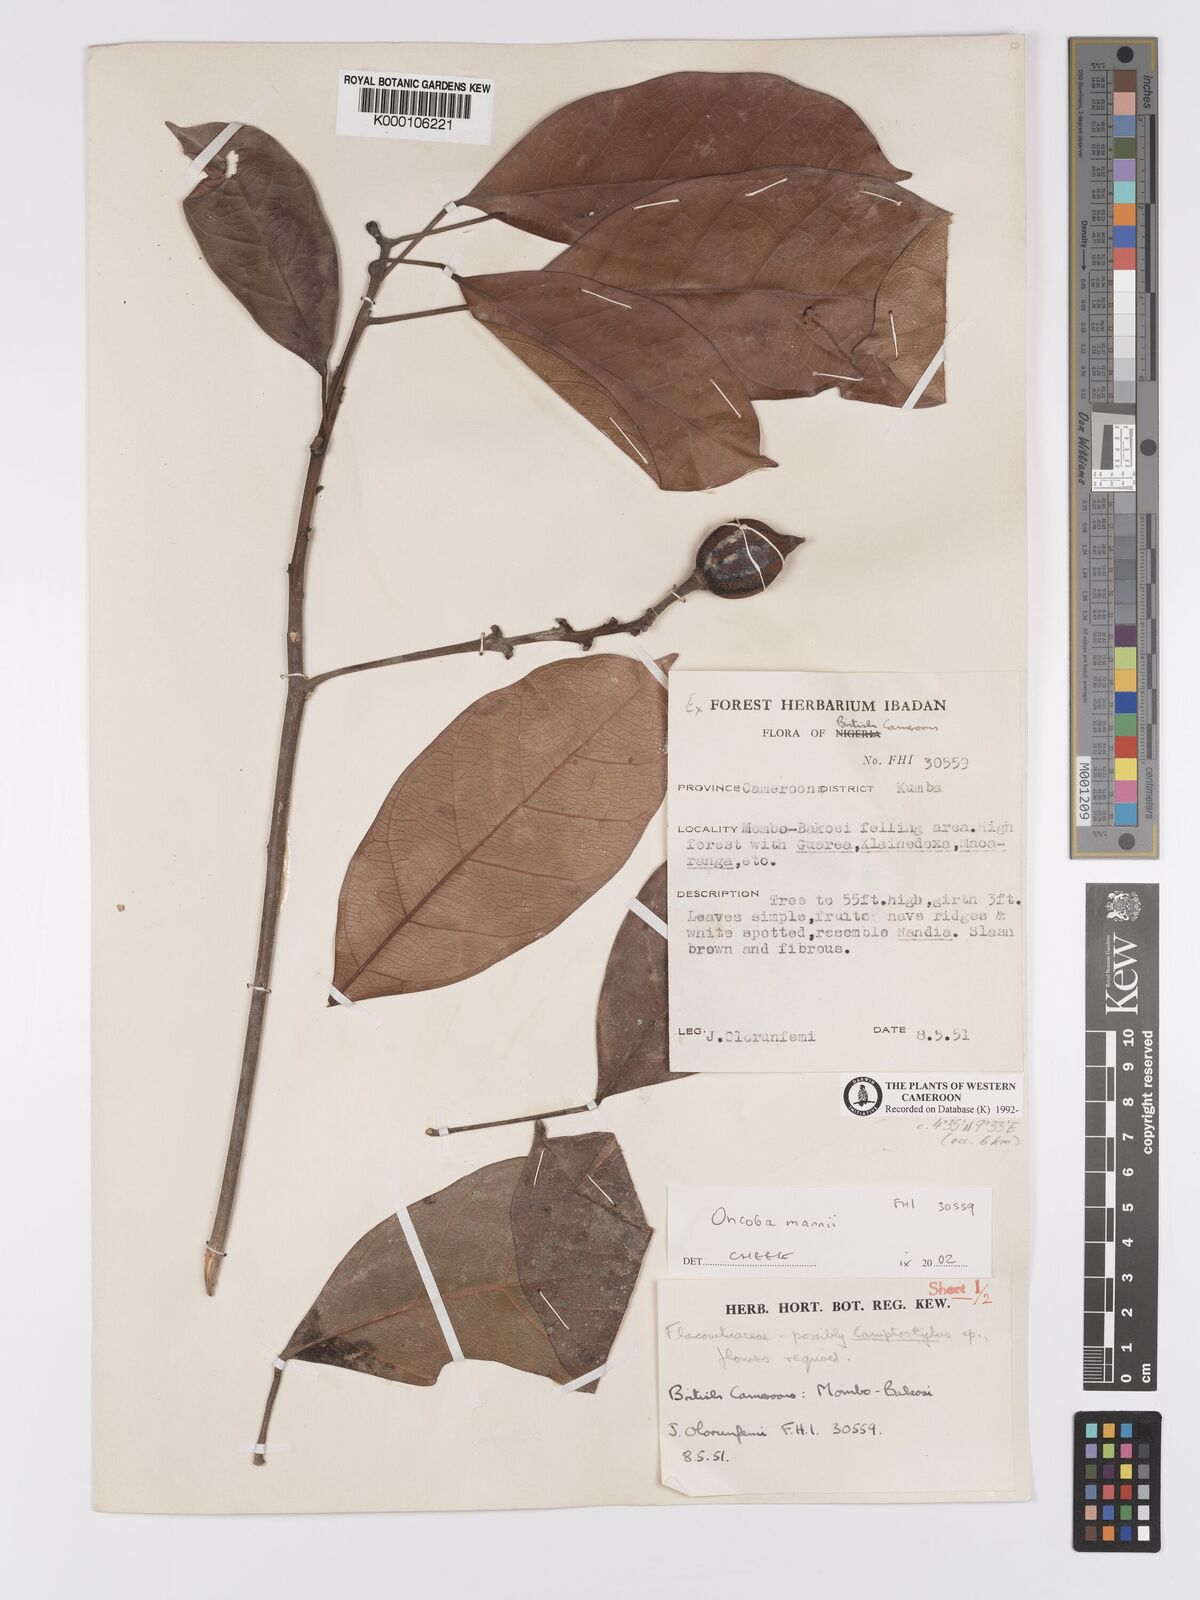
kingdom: Plantae
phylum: Tracheophyta
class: Magnoliopsida
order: Malpighiales
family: Achariaceae
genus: Camptostylus
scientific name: Camptostylus mannii
